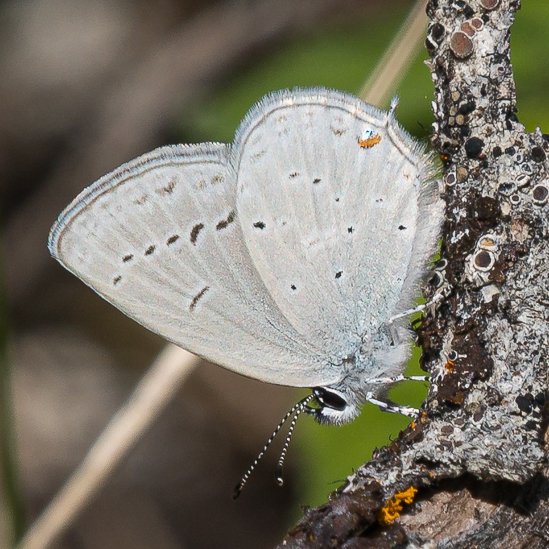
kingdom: Animalia
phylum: Arthropoda
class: Insecta
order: Lepidoptera
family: Lycaenidae
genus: Elkalyce
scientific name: Elkalyce amyntula
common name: Western Tailed-Blue
